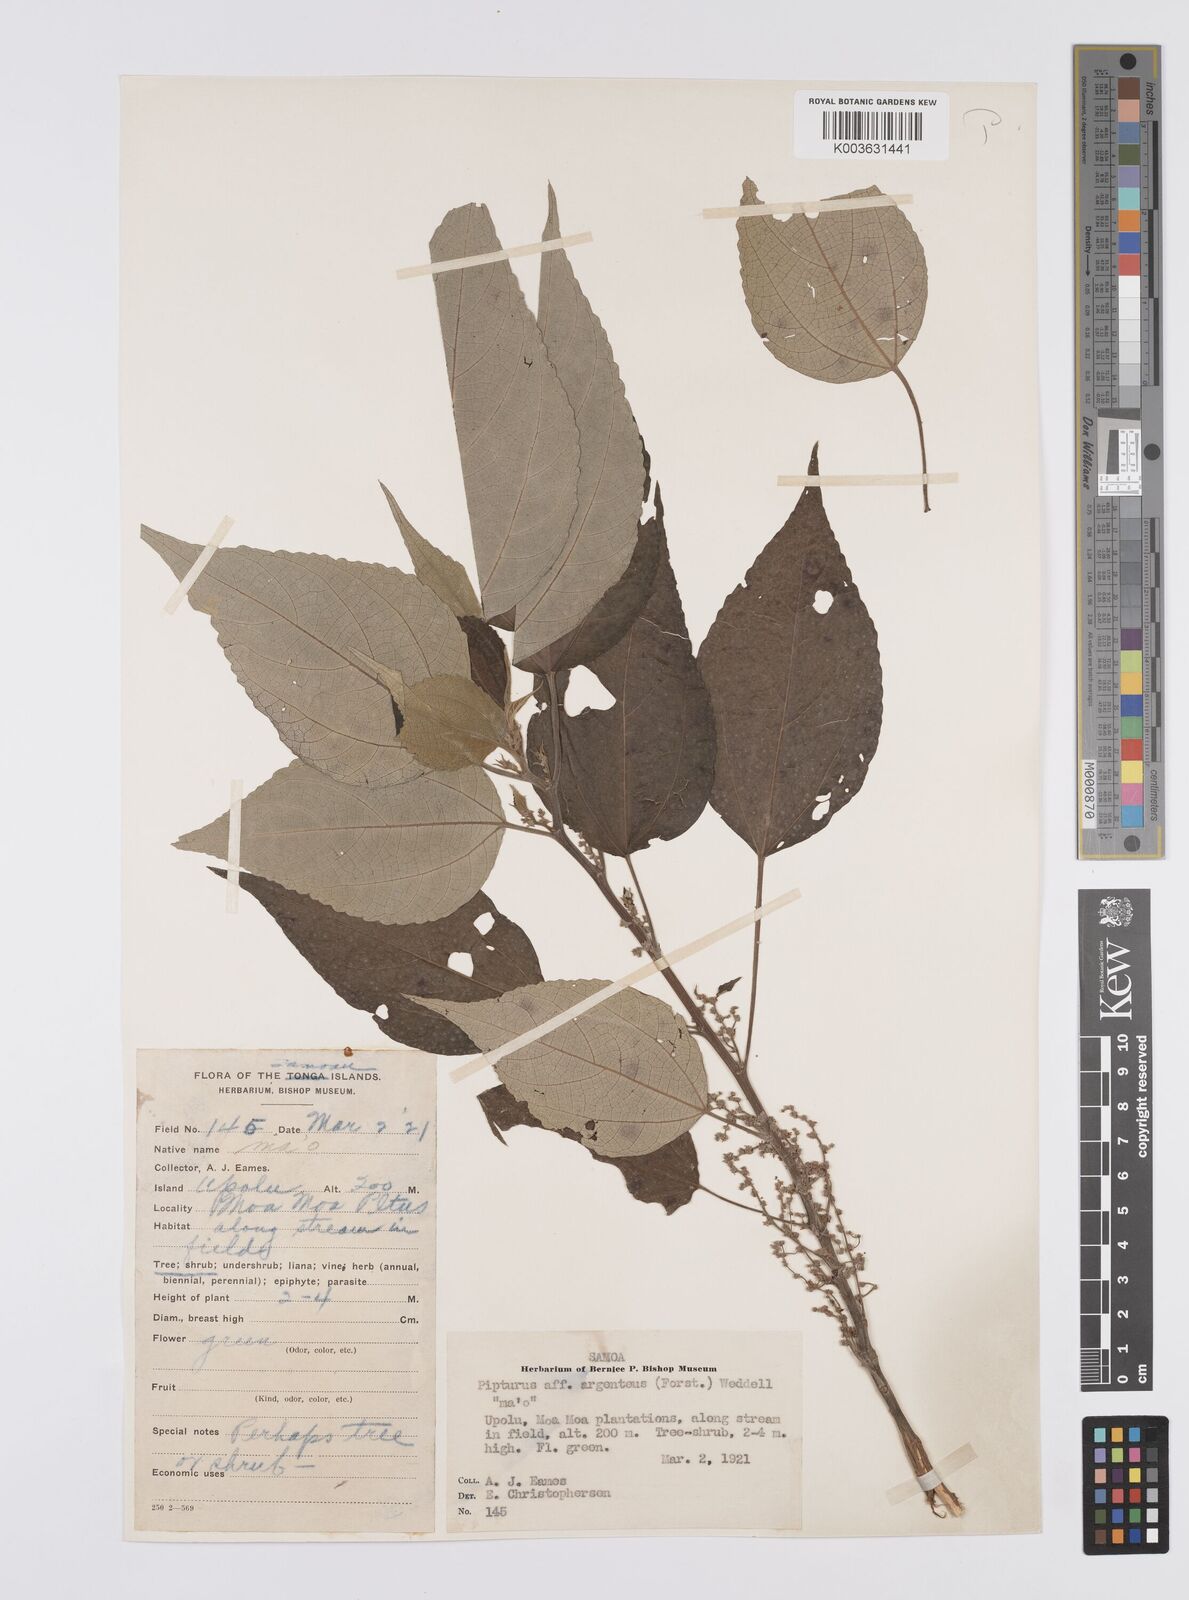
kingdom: Plantae
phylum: Tracheophyta
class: Magnoliopsida
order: Rosales
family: Urticaceae
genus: Pipturus
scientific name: Pipturus argenteus
